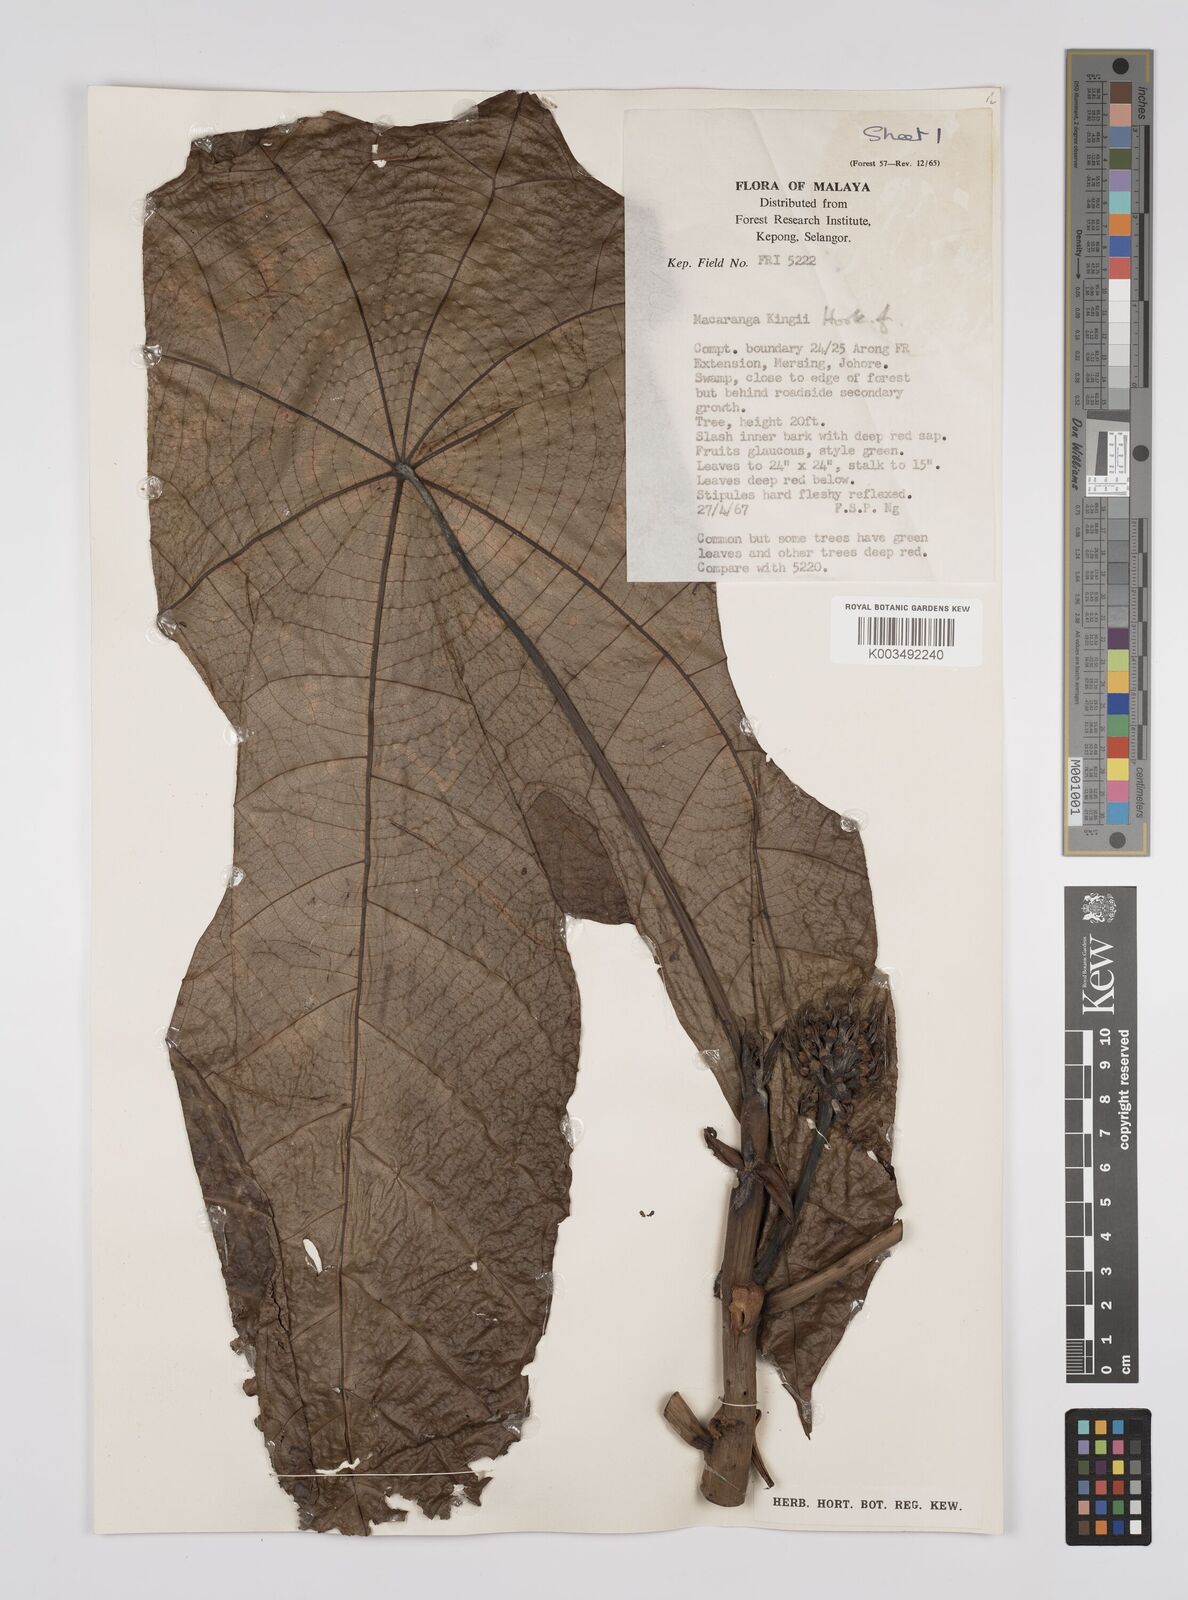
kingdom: Plantae
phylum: Tracheophyta
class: Magnoliopsida
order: Malpighiales
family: Euphorbiaceae
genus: Macaranga
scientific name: Macaranga kingii
